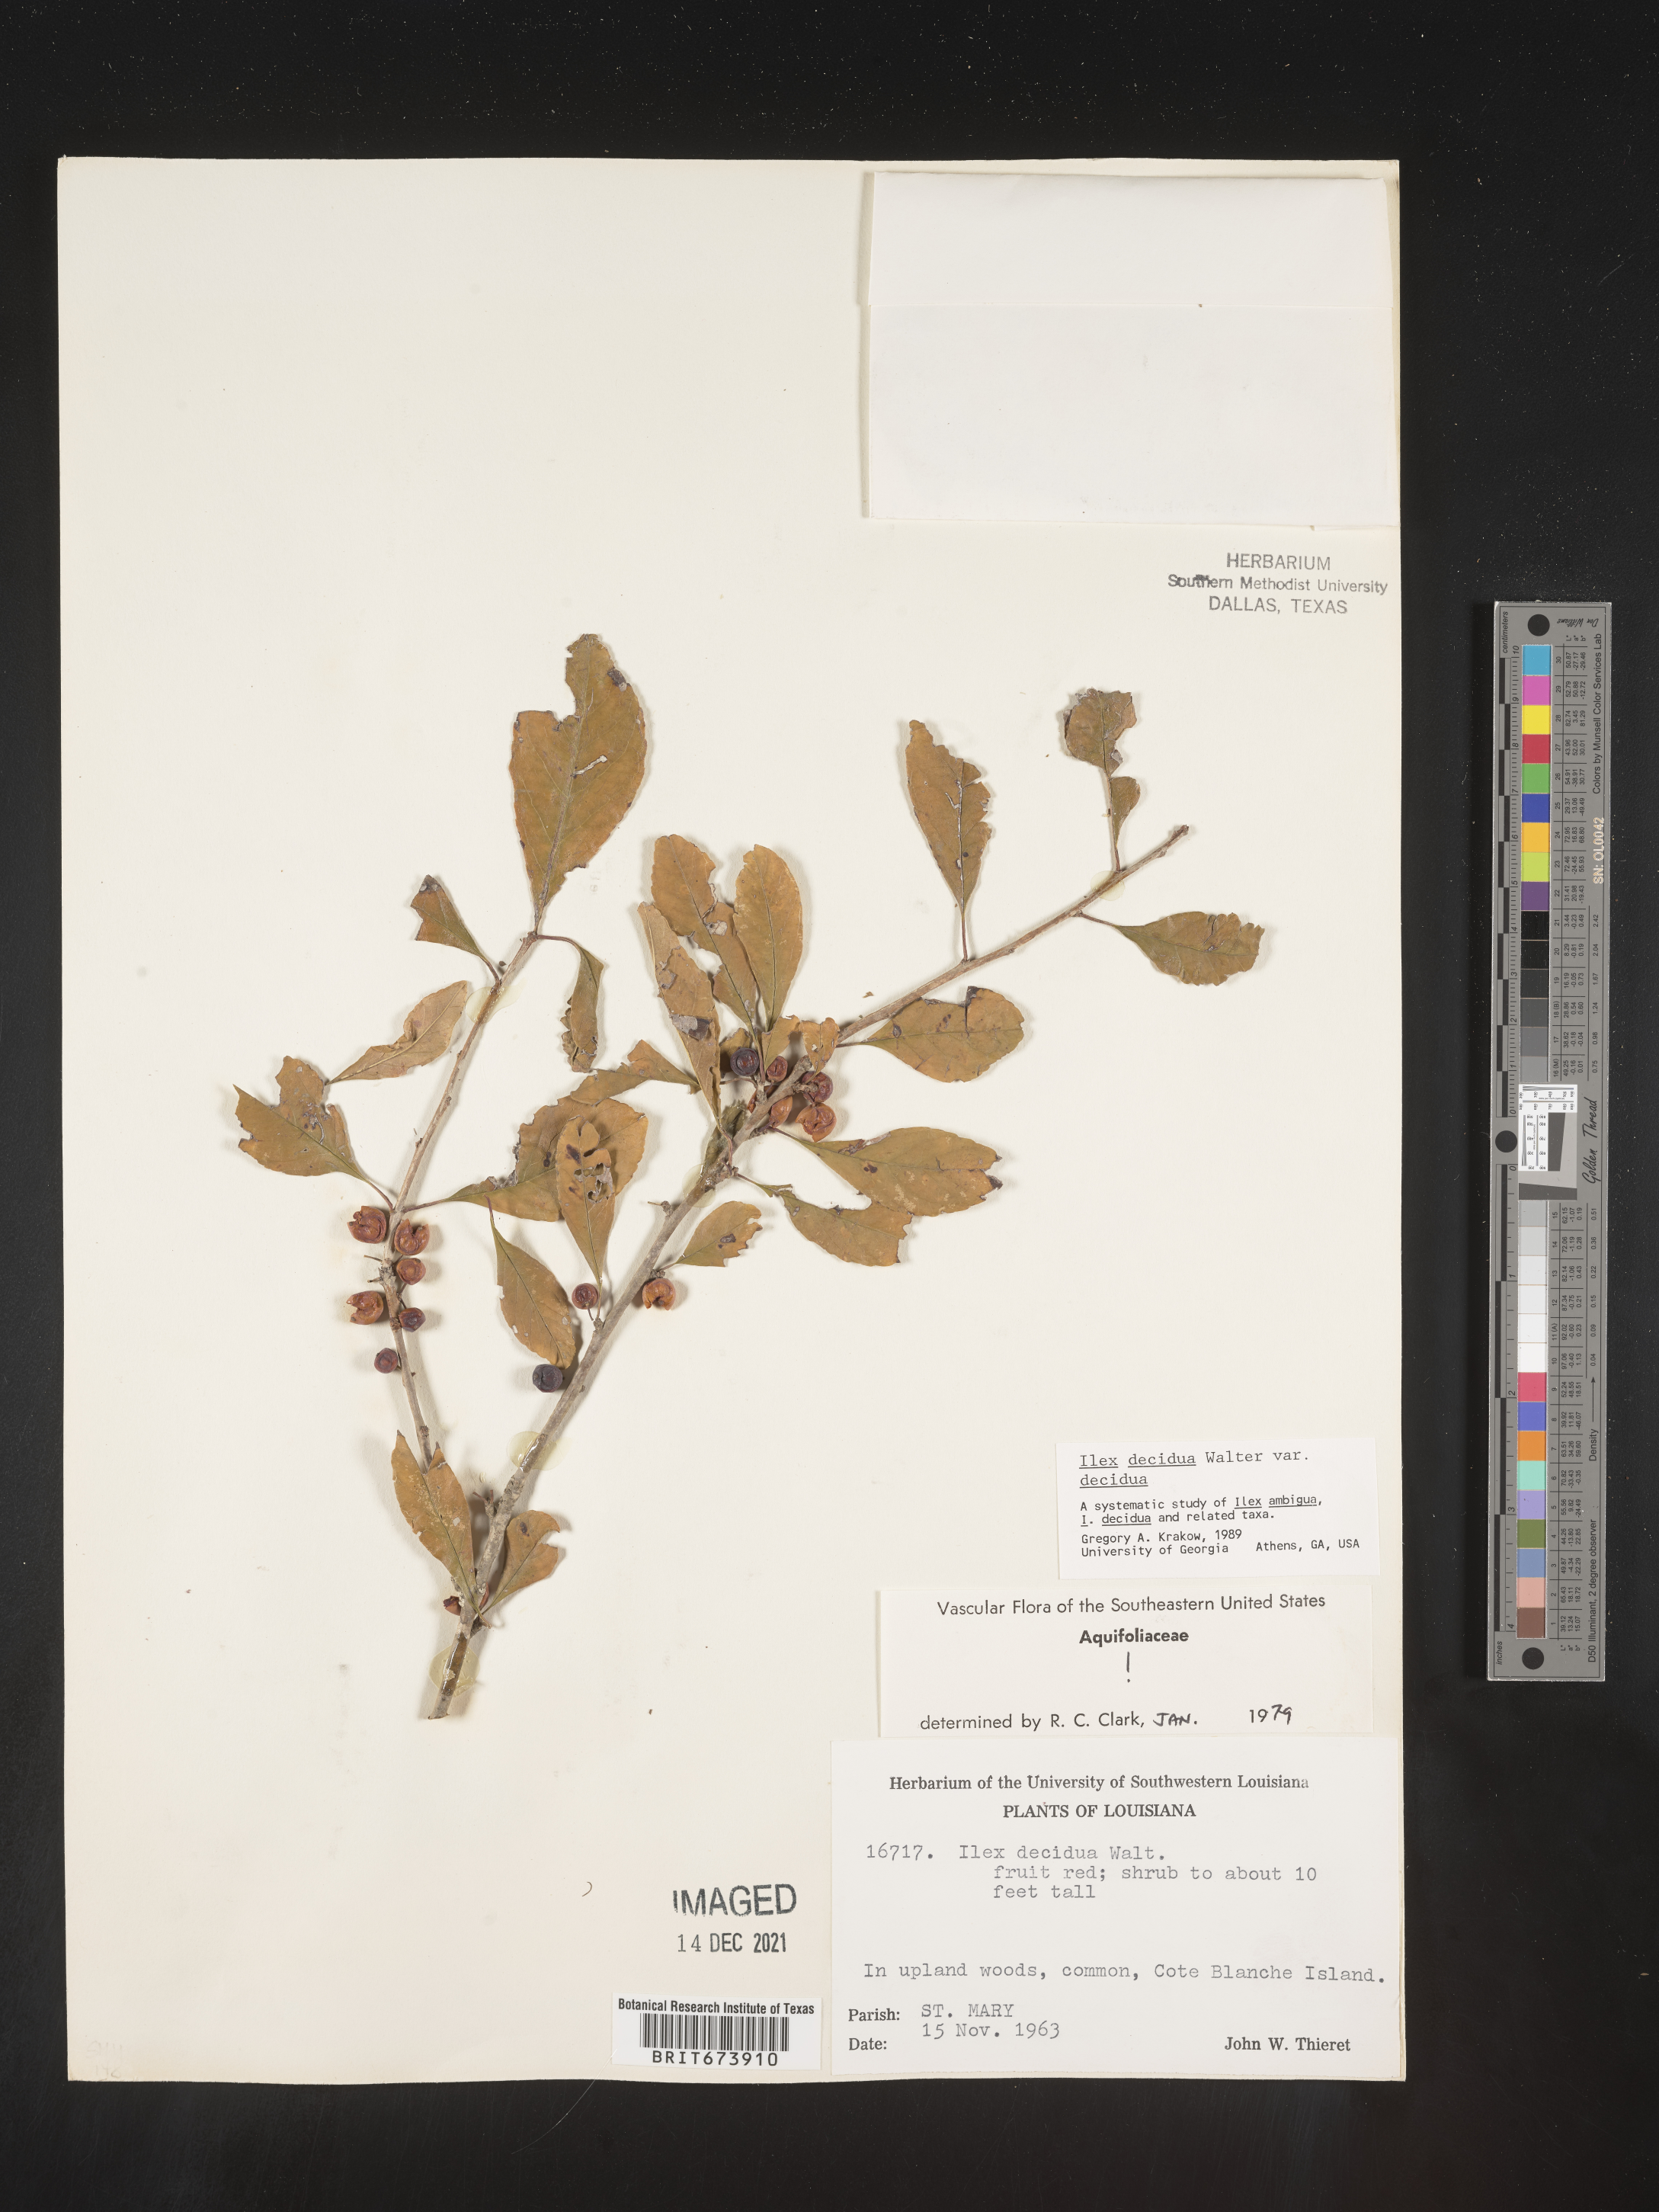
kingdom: Plantae
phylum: Tracheophyta
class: Magnoliopsida
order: Aquifoliales
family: Aquifoliaceae
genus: Ilex
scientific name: Ilex decidua
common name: Possum-haw
